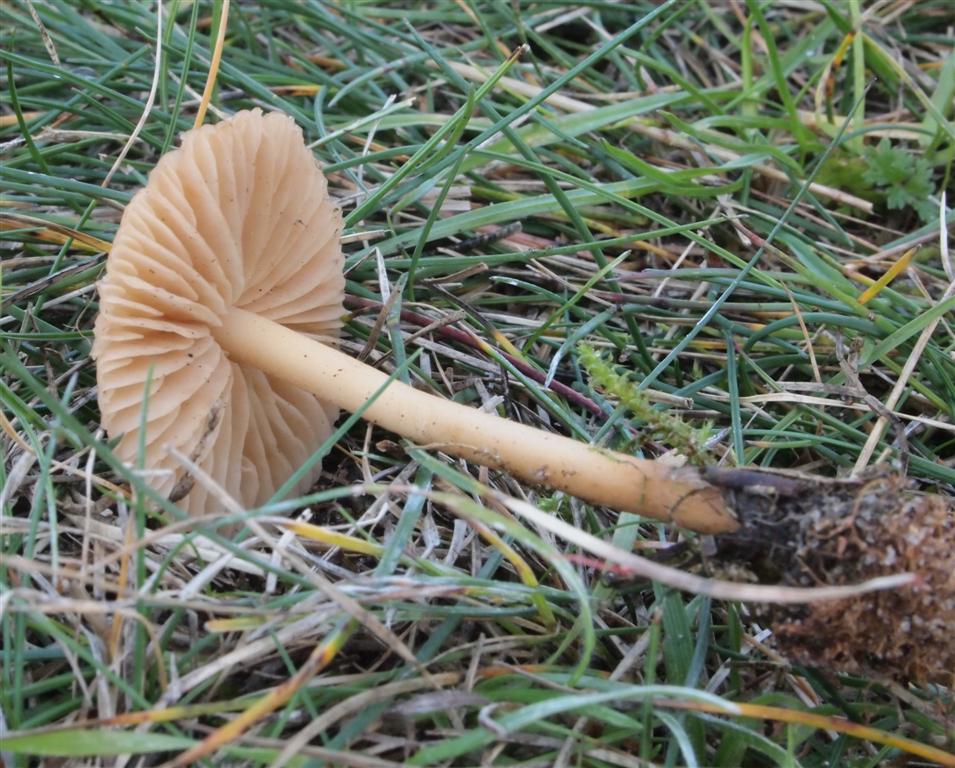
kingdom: Fungi
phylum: Basidiomycota
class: Agaricomycetes
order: Agaricales
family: Marasmiaceae
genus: Marasmius
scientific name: Marasmius oreades
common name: elledans-bruskhat
